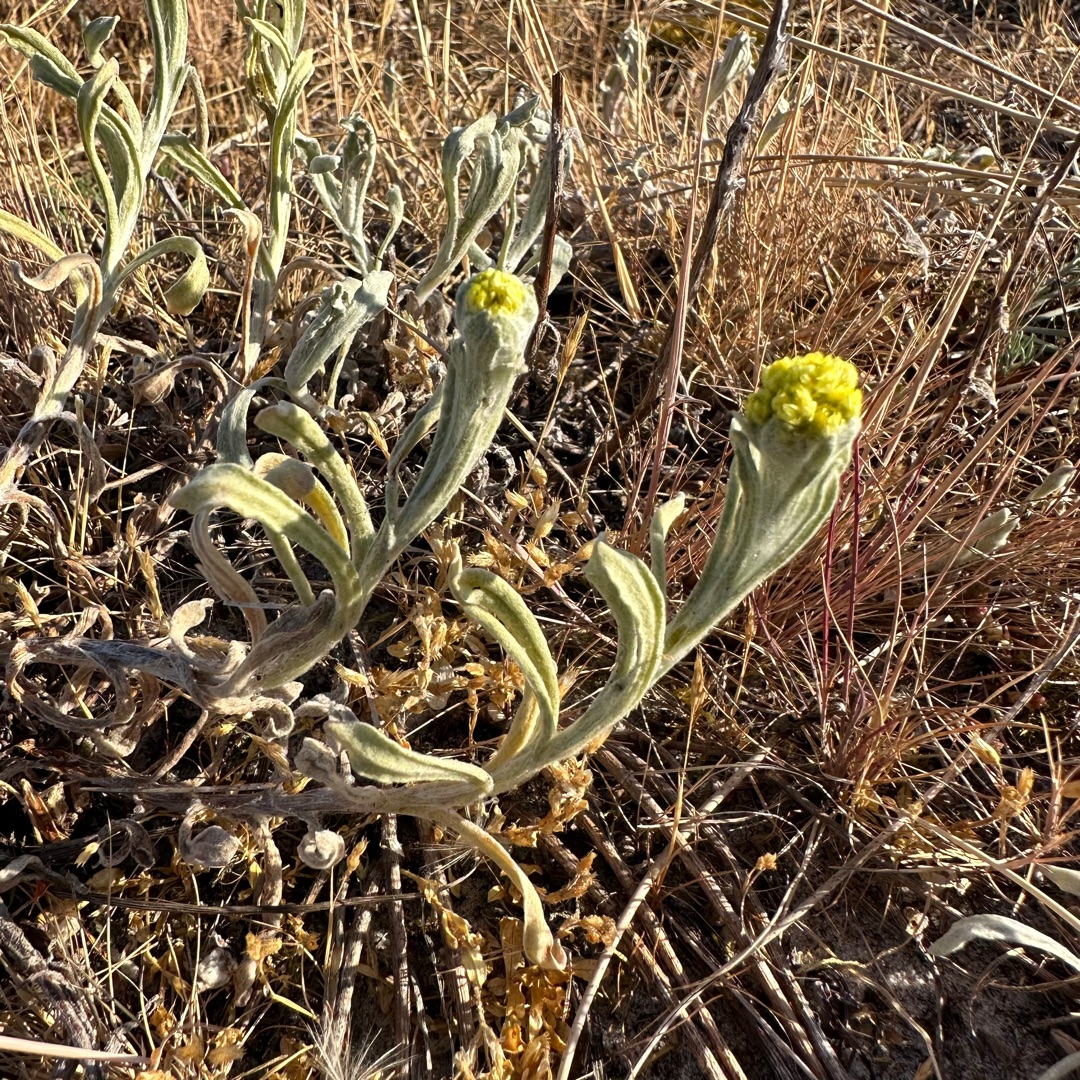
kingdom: Plantae
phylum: Tracheophyta
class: Magnoliopsida
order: Asterales
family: Asteraceae
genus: Helichrysum
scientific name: Helichrysum arenarium
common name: Gul evighedsblomst
